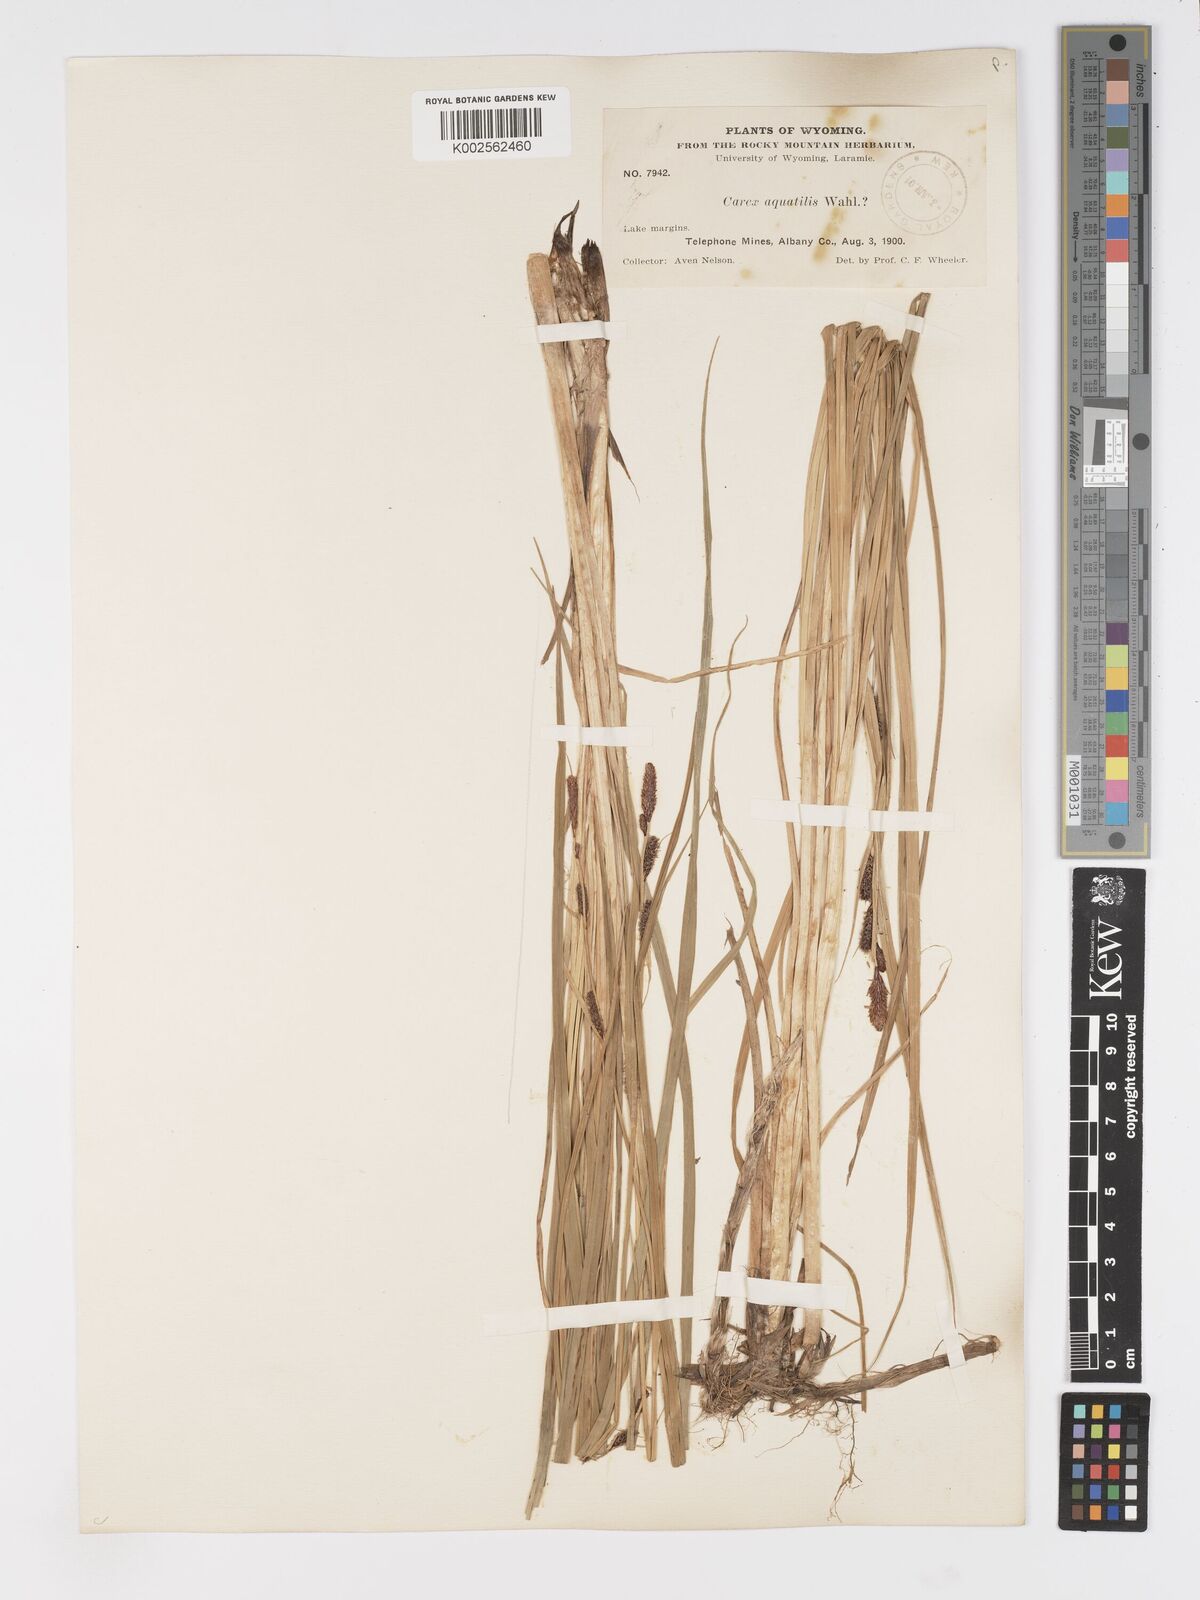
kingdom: Plantae
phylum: Tracheophyta
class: Liliopsida
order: Poales
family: Cyperaceae
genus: Carex
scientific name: Carex
